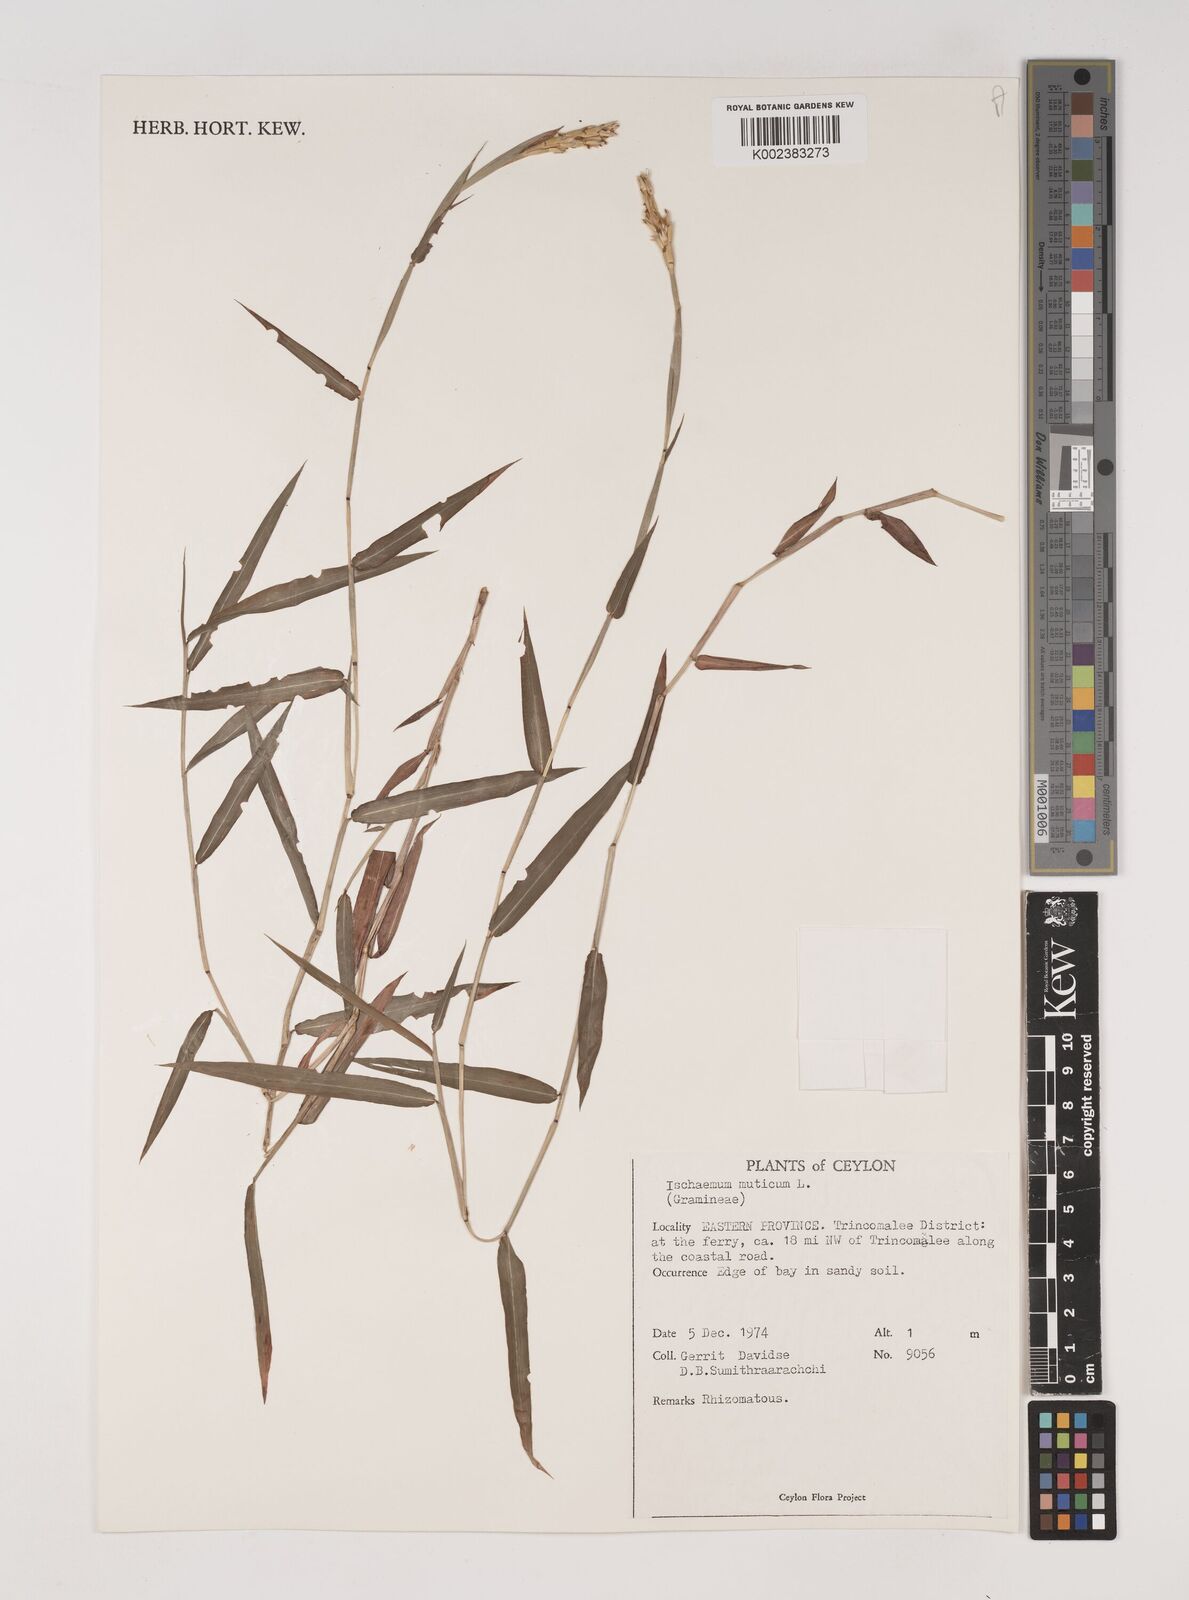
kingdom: Plantae
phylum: Tracheophyta
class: Liliopsida
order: Poales
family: Poaceae
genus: Ischaemum
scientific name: Ischaemum muticum
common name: Drought grass
